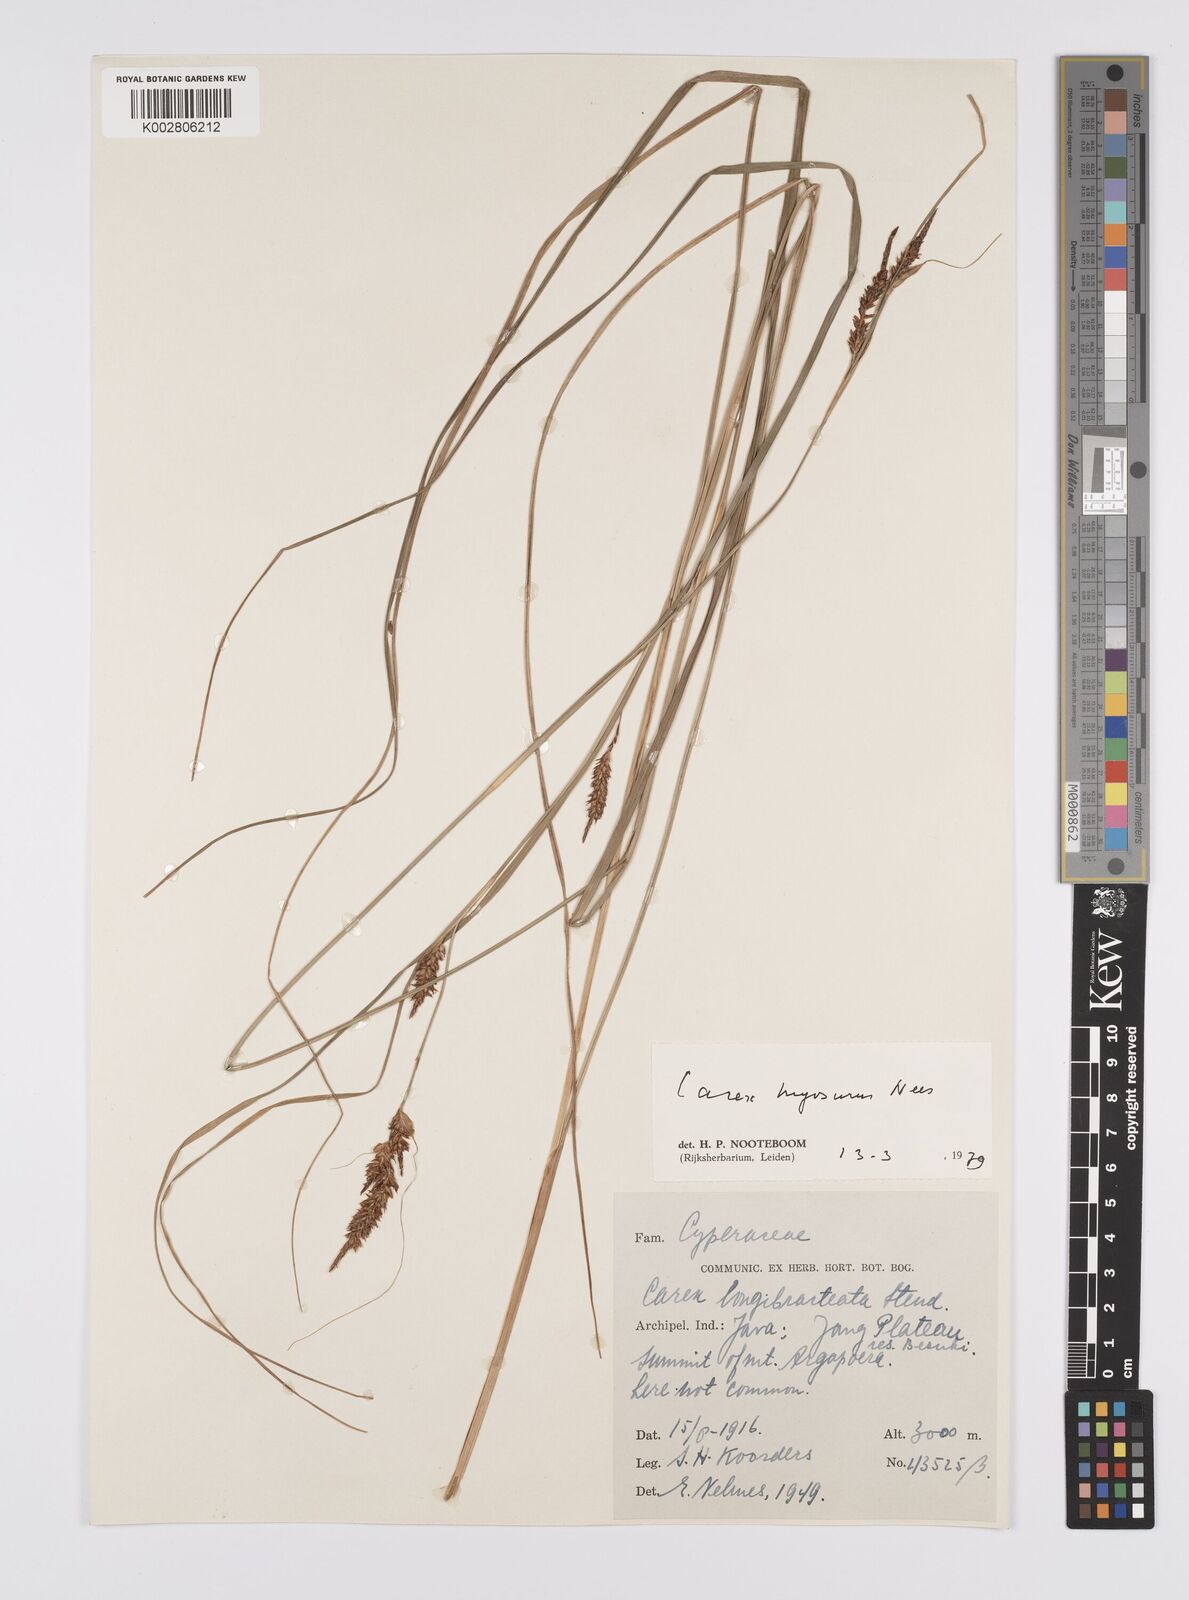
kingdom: Plantae
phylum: Tracheophyta
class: Liliopsida
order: Poales
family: Cyperaceae
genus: Carex
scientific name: Carex myosurus
